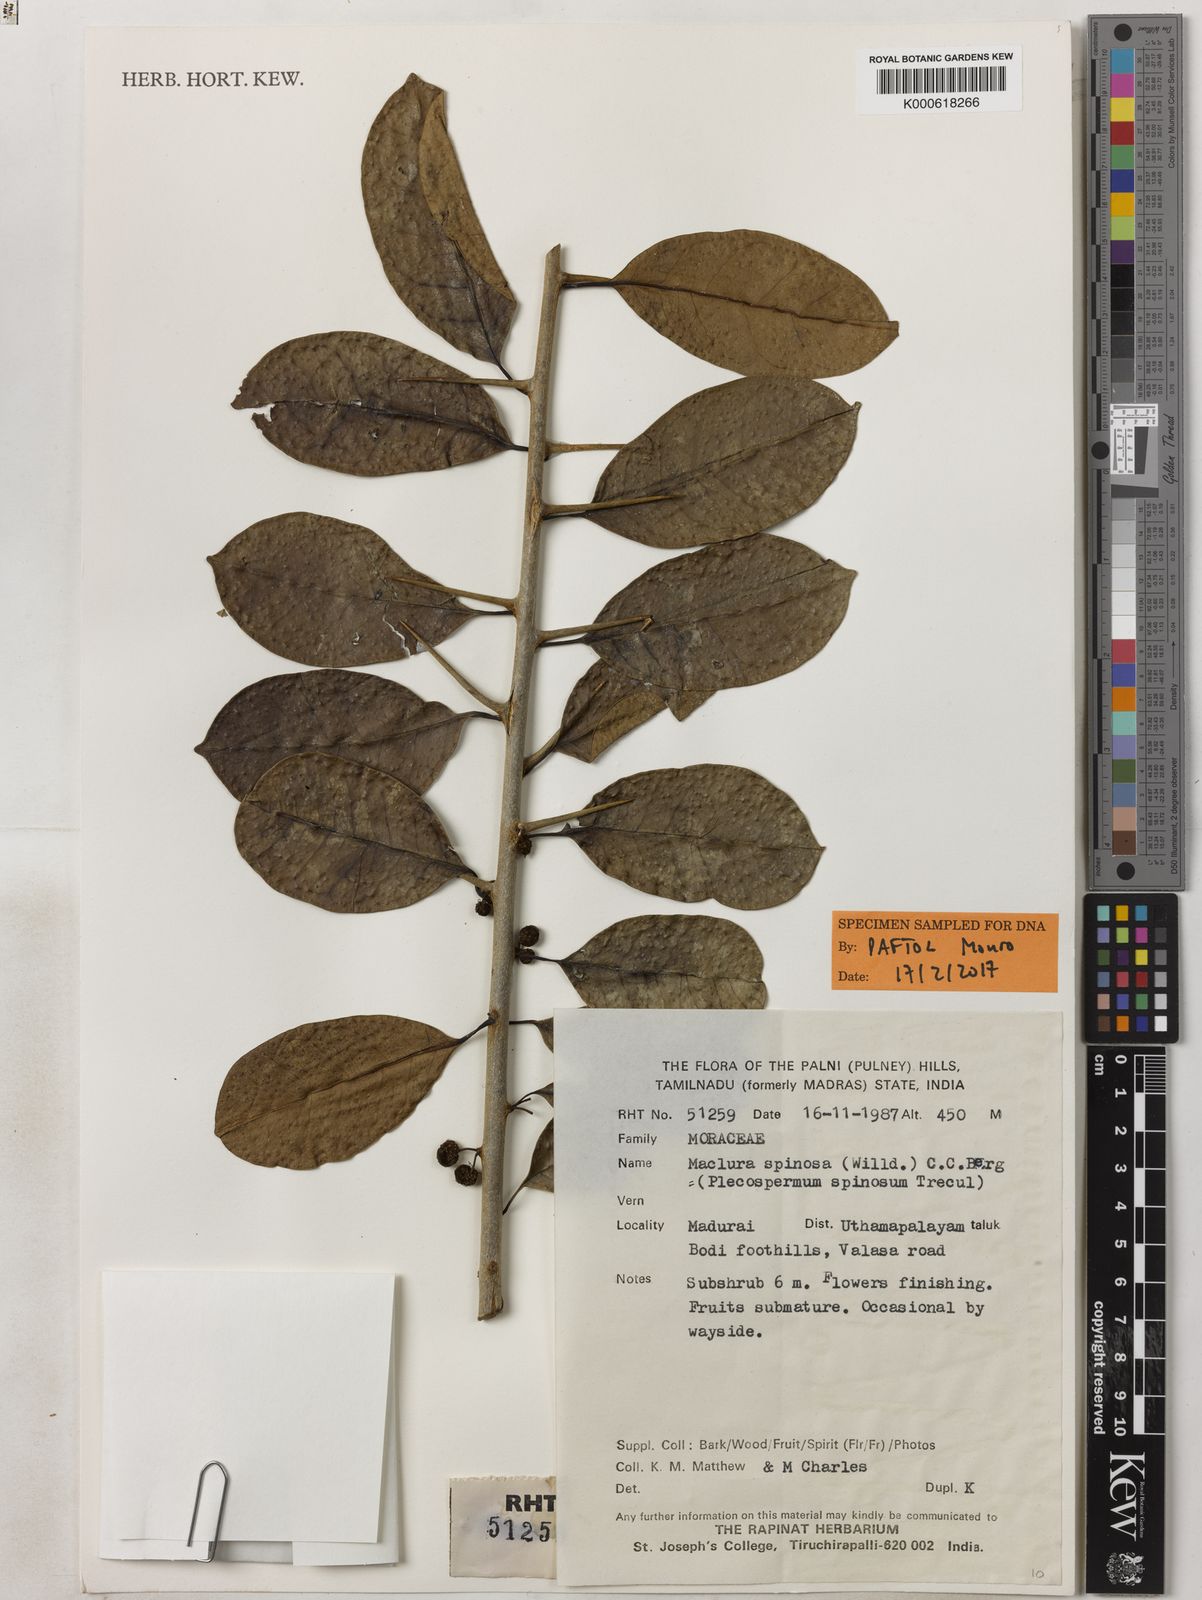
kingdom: Plantae
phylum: Tracheophyta
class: Magnoliopsida
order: Rosales
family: Moraceae
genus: Maclura
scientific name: Maclura
